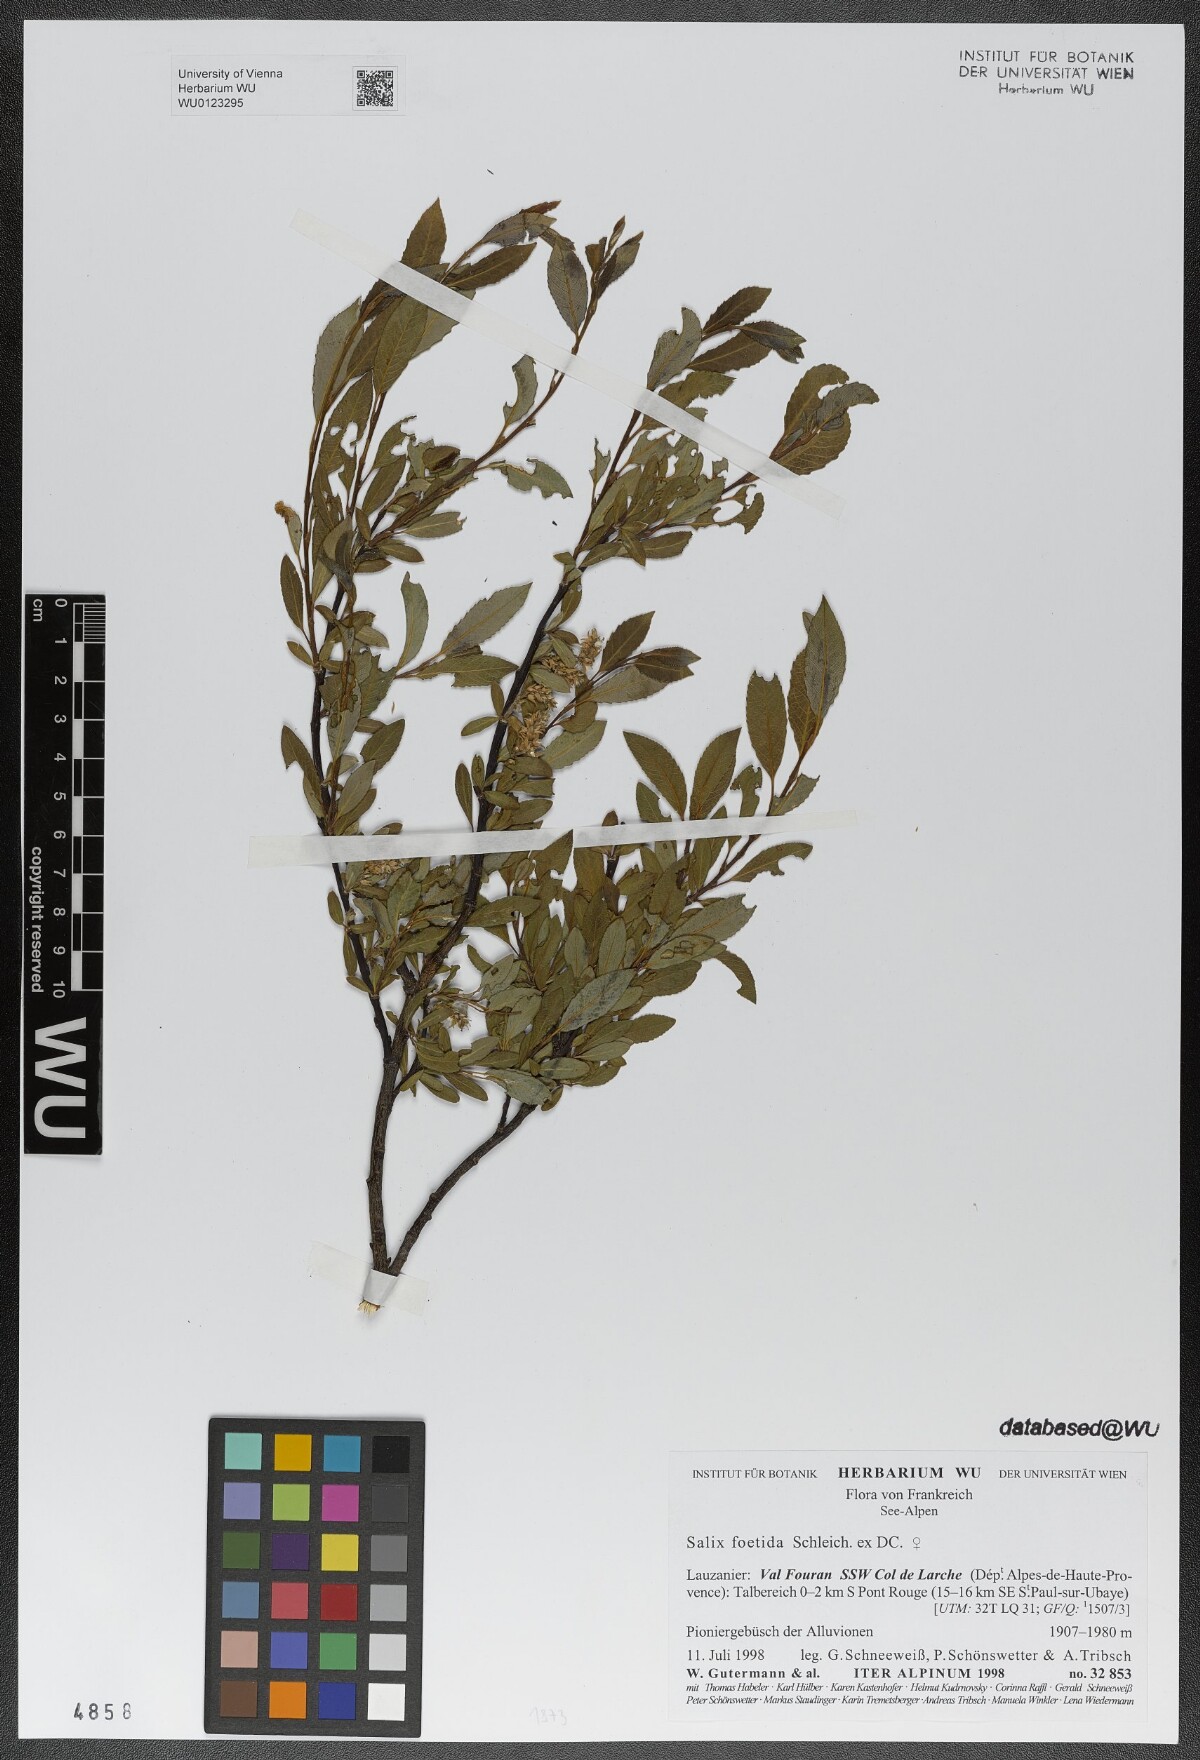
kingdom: Plantae
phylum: Tracheophyta
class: Magnoliopsida
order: Malpighiales
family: Salicaceae
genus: Salix
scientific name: Salix foetida
